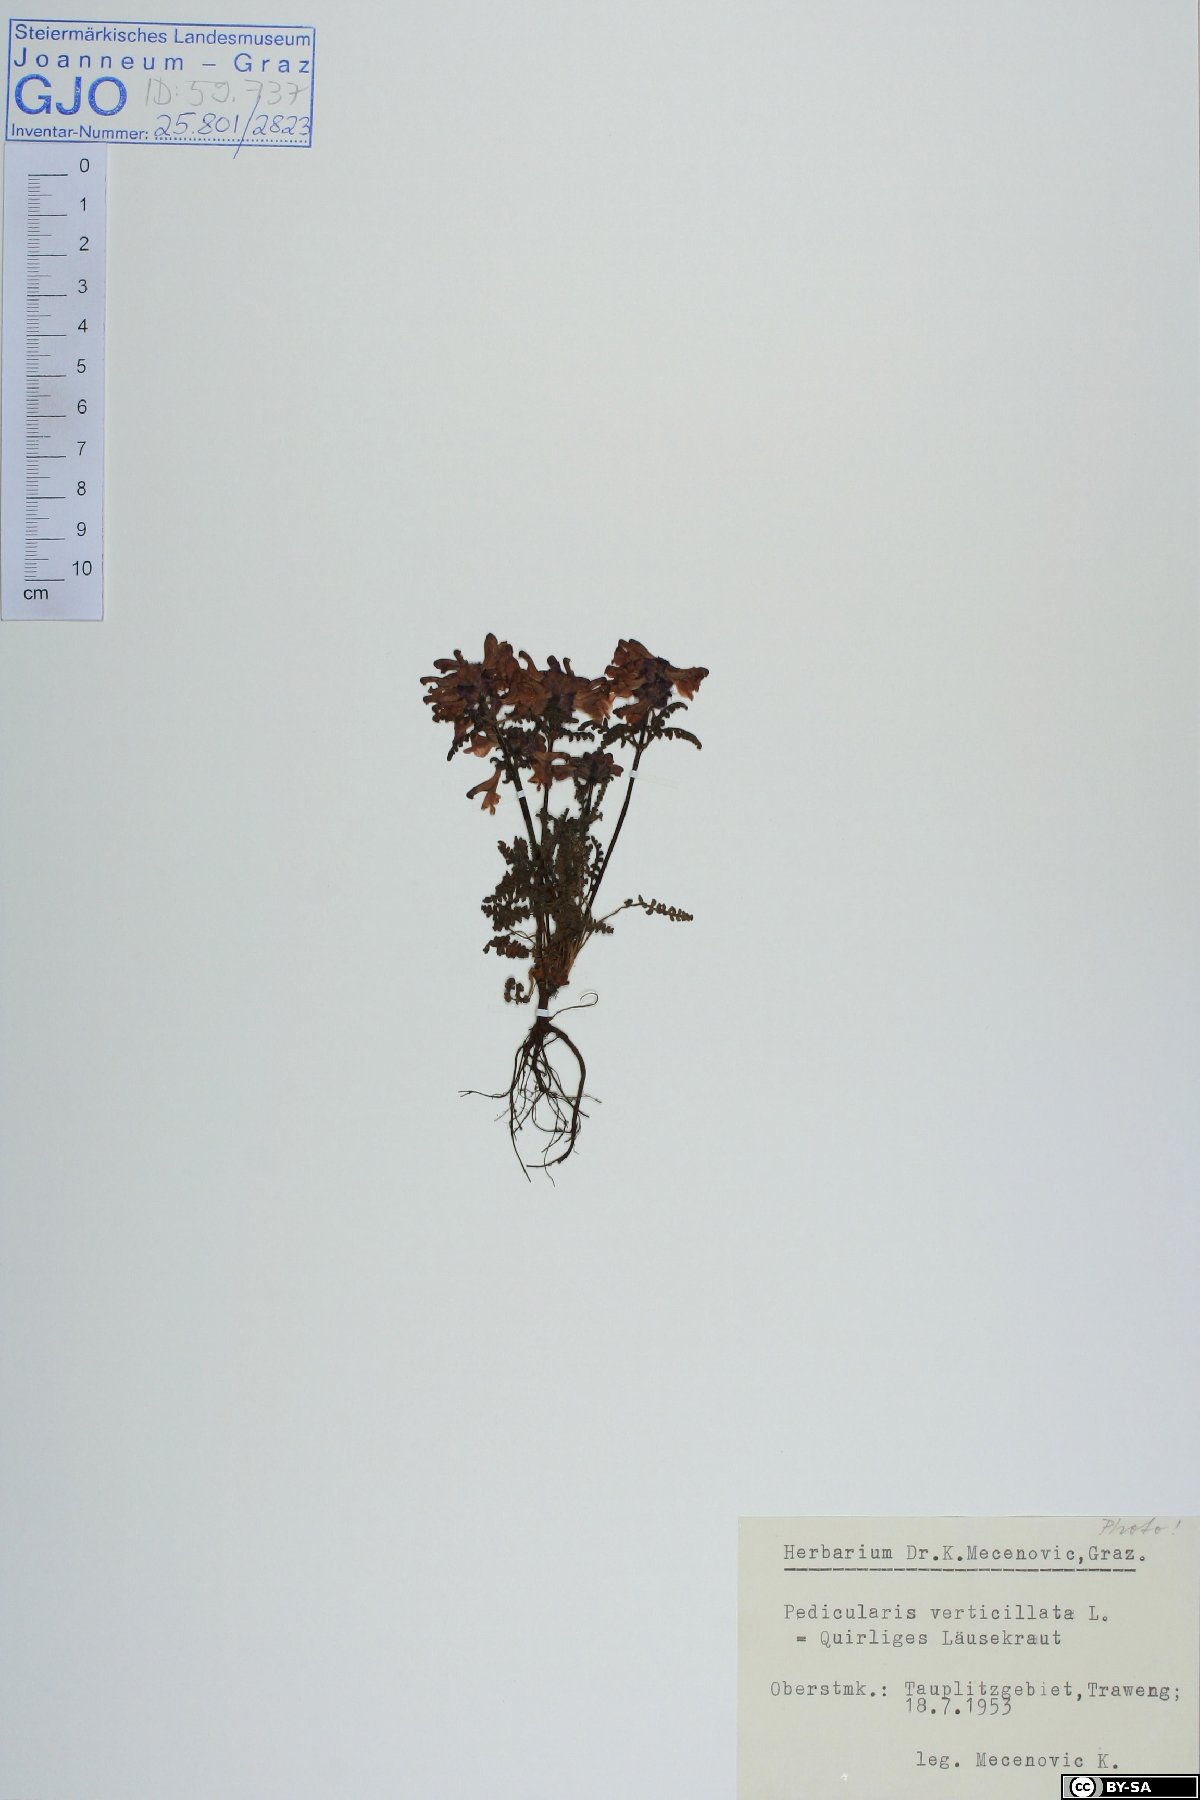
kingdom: Plantae
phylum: Tracheophyta
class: Magnoliopsida
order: Lamiales
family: Orobanchaceae
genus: Pedicularis
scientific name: Pedicularis verticillata
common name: Whorled lousewort
